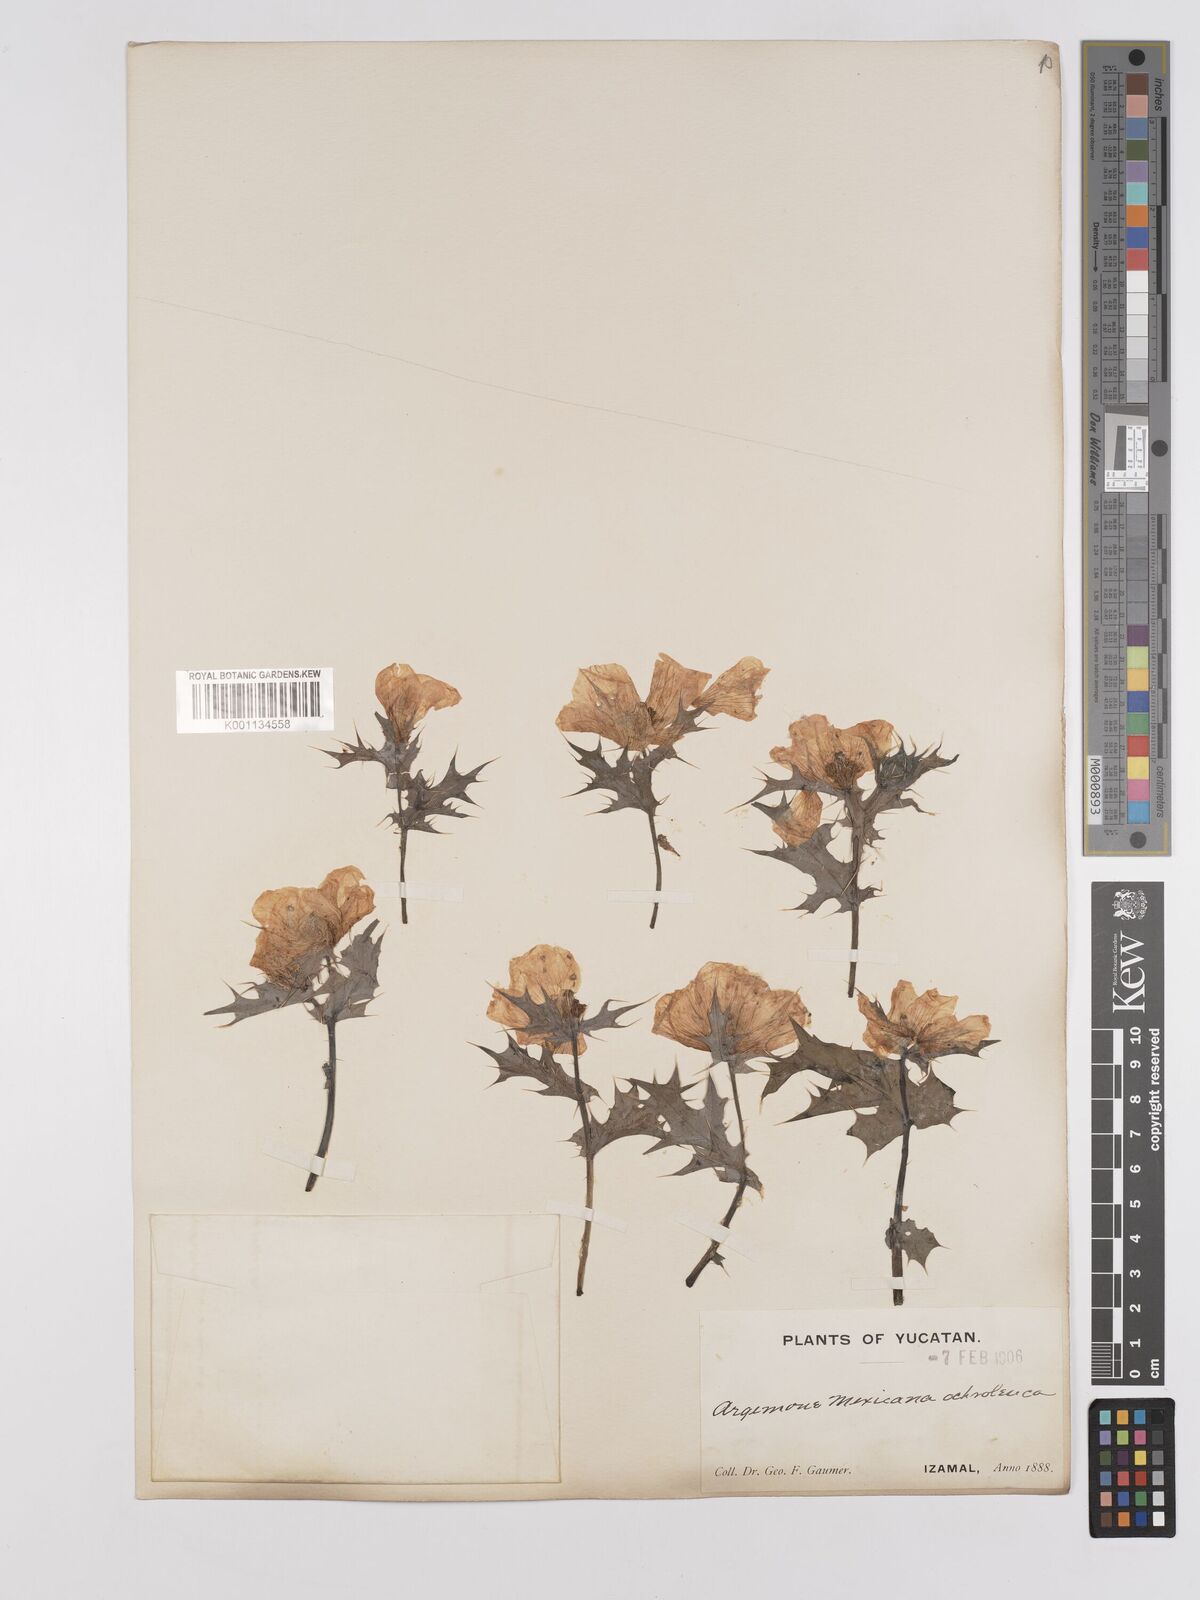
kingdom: Plantae
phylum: Tracheophyta
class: Magnoliopsida
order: Ranunculales
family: Papaveraceae
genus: Argemone
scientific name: Argemone mexicana
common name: Mexican poppy
